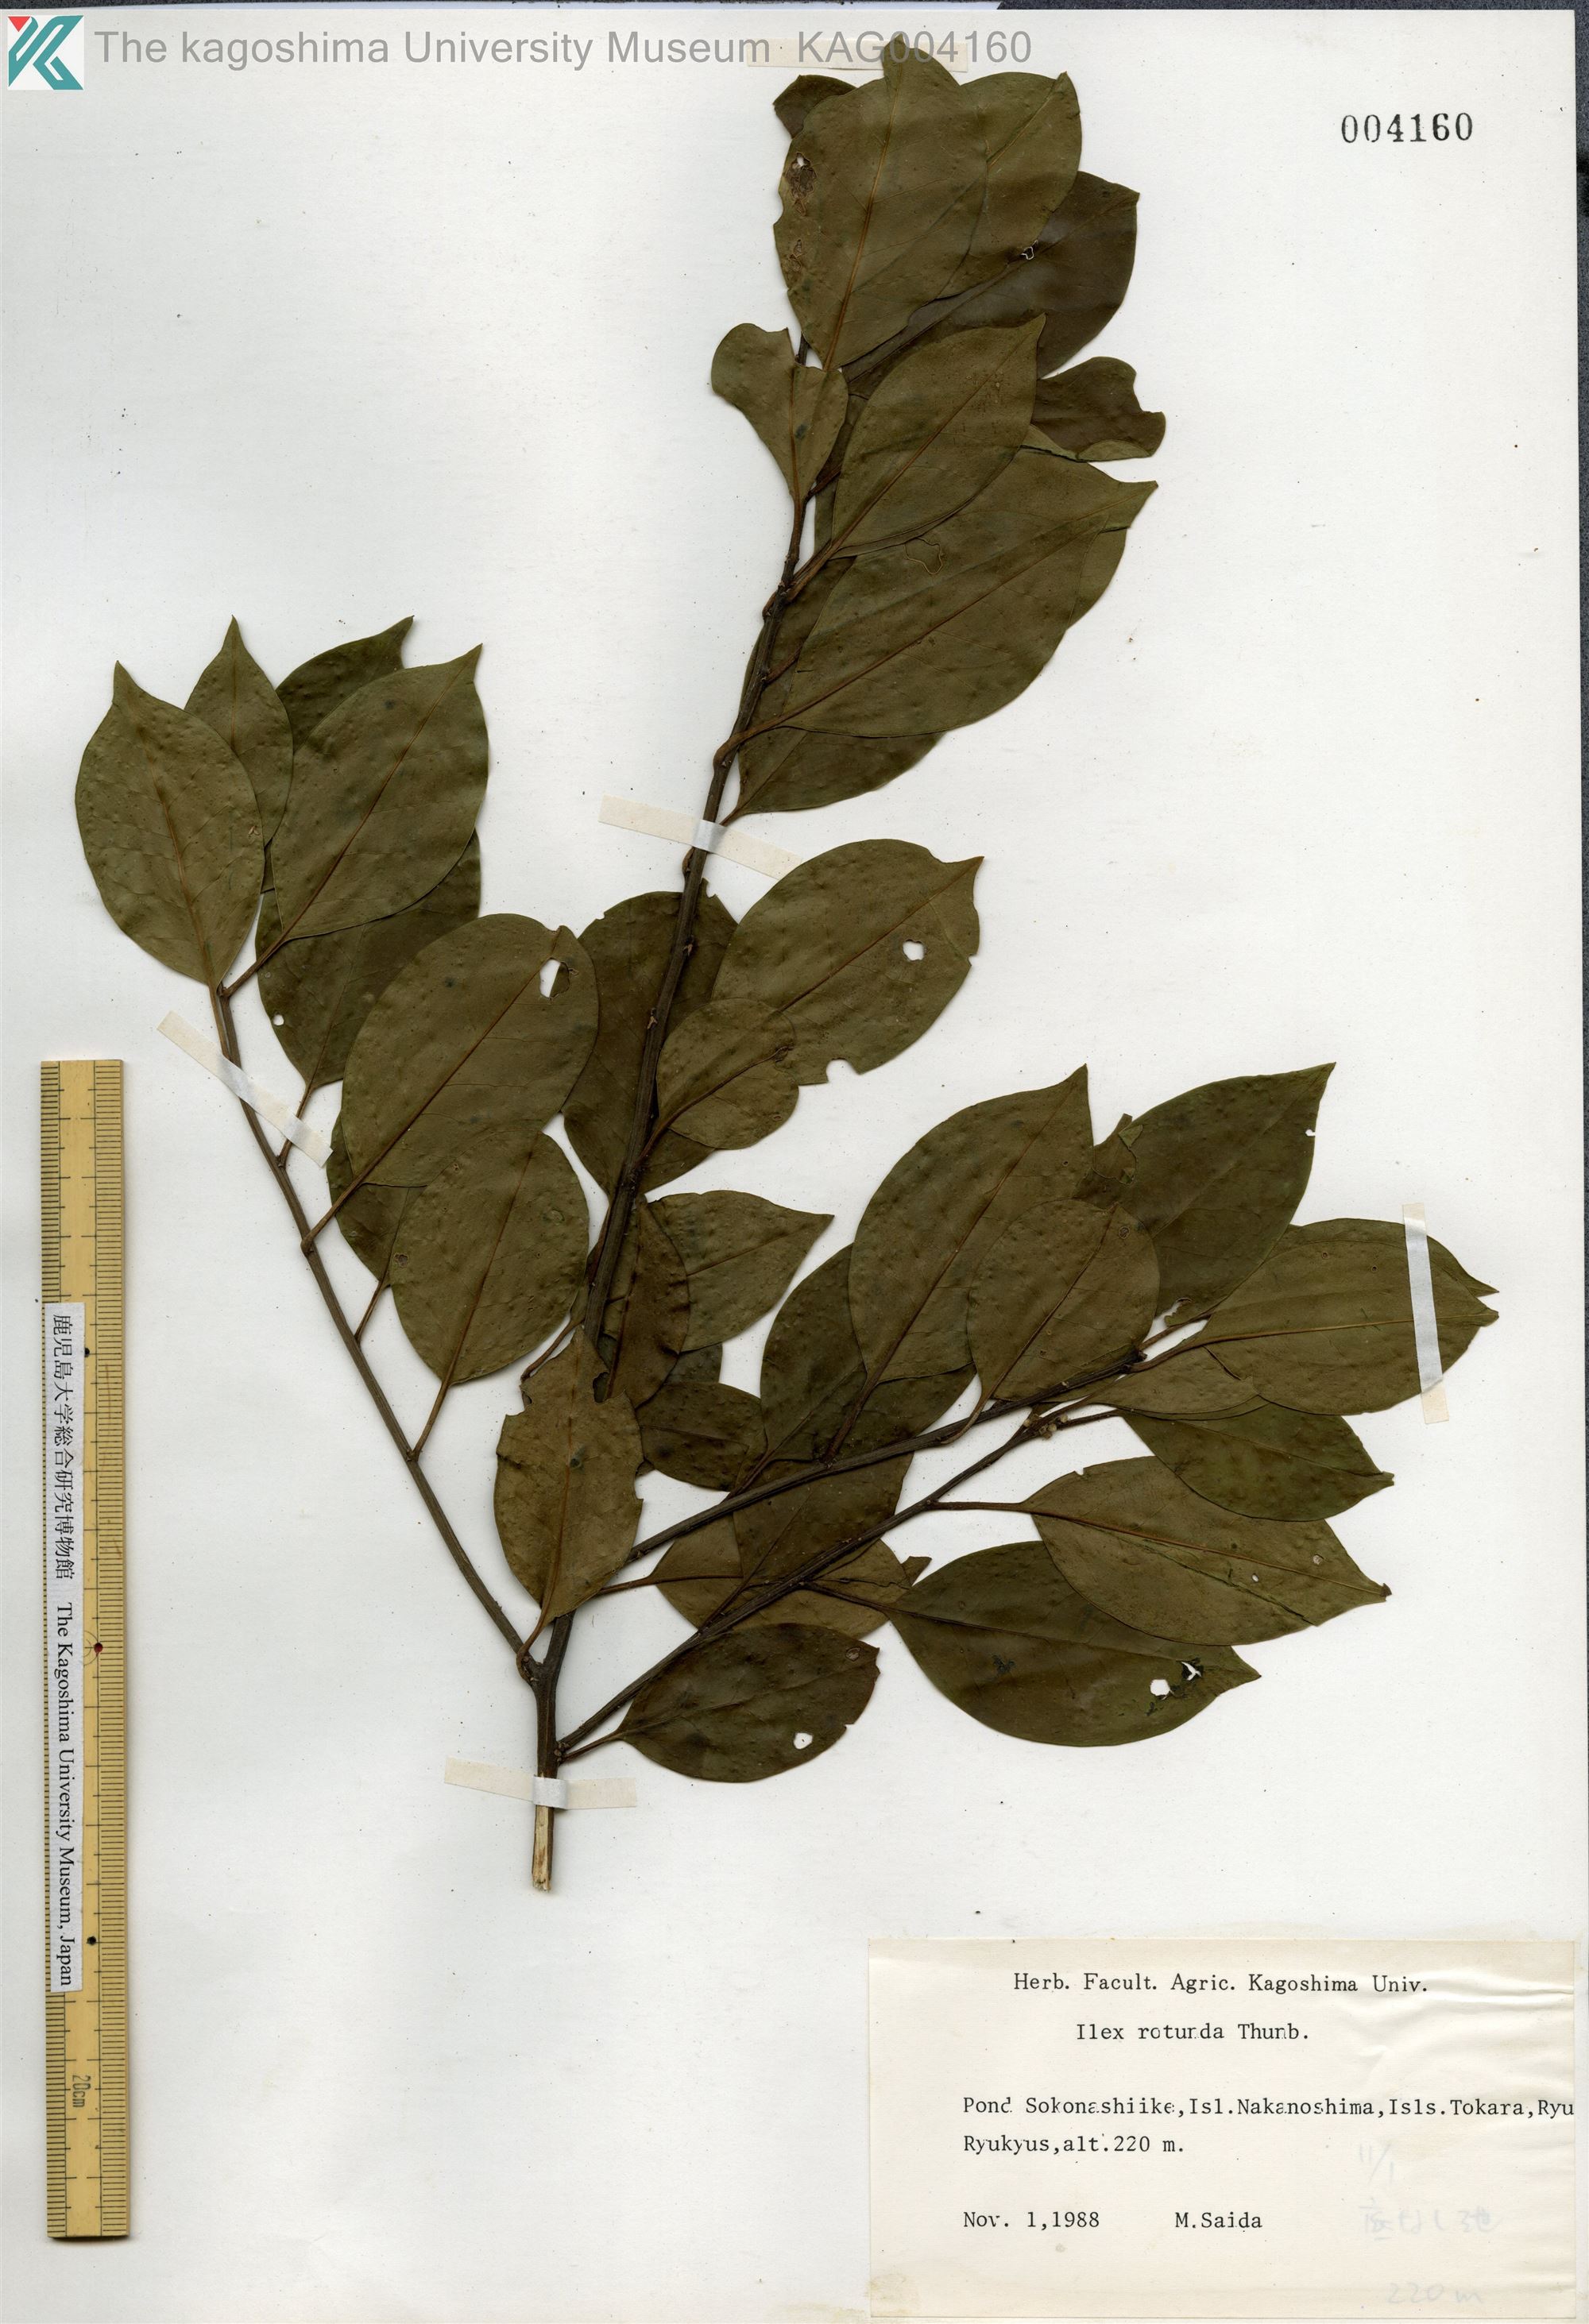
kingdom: Plantae
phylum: Tracheophyta
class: Magnoliopsida
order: Aquifoliales
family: Aquifoliaceae
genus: Ilex
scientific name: Ilex rotunda
